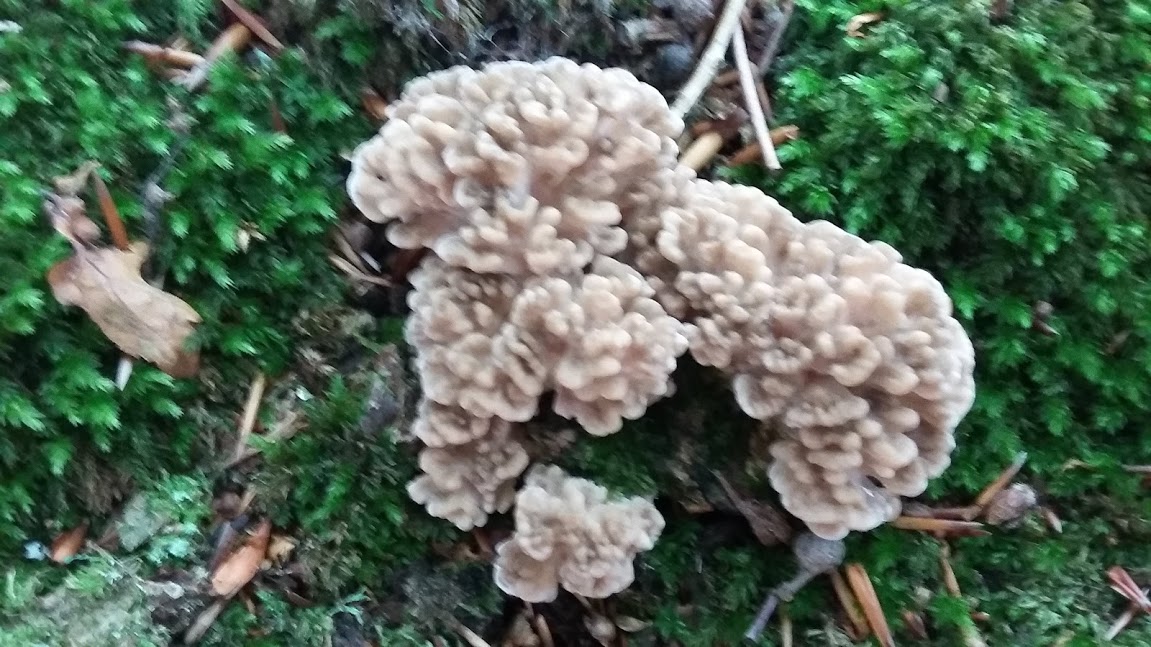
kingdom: Fungi
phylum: Basidiomycota
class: Agaricomycetes
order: Polyporales
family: Grifolaceae
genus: Grifola
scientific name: Grifola frondosa
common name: tueporesvamp
